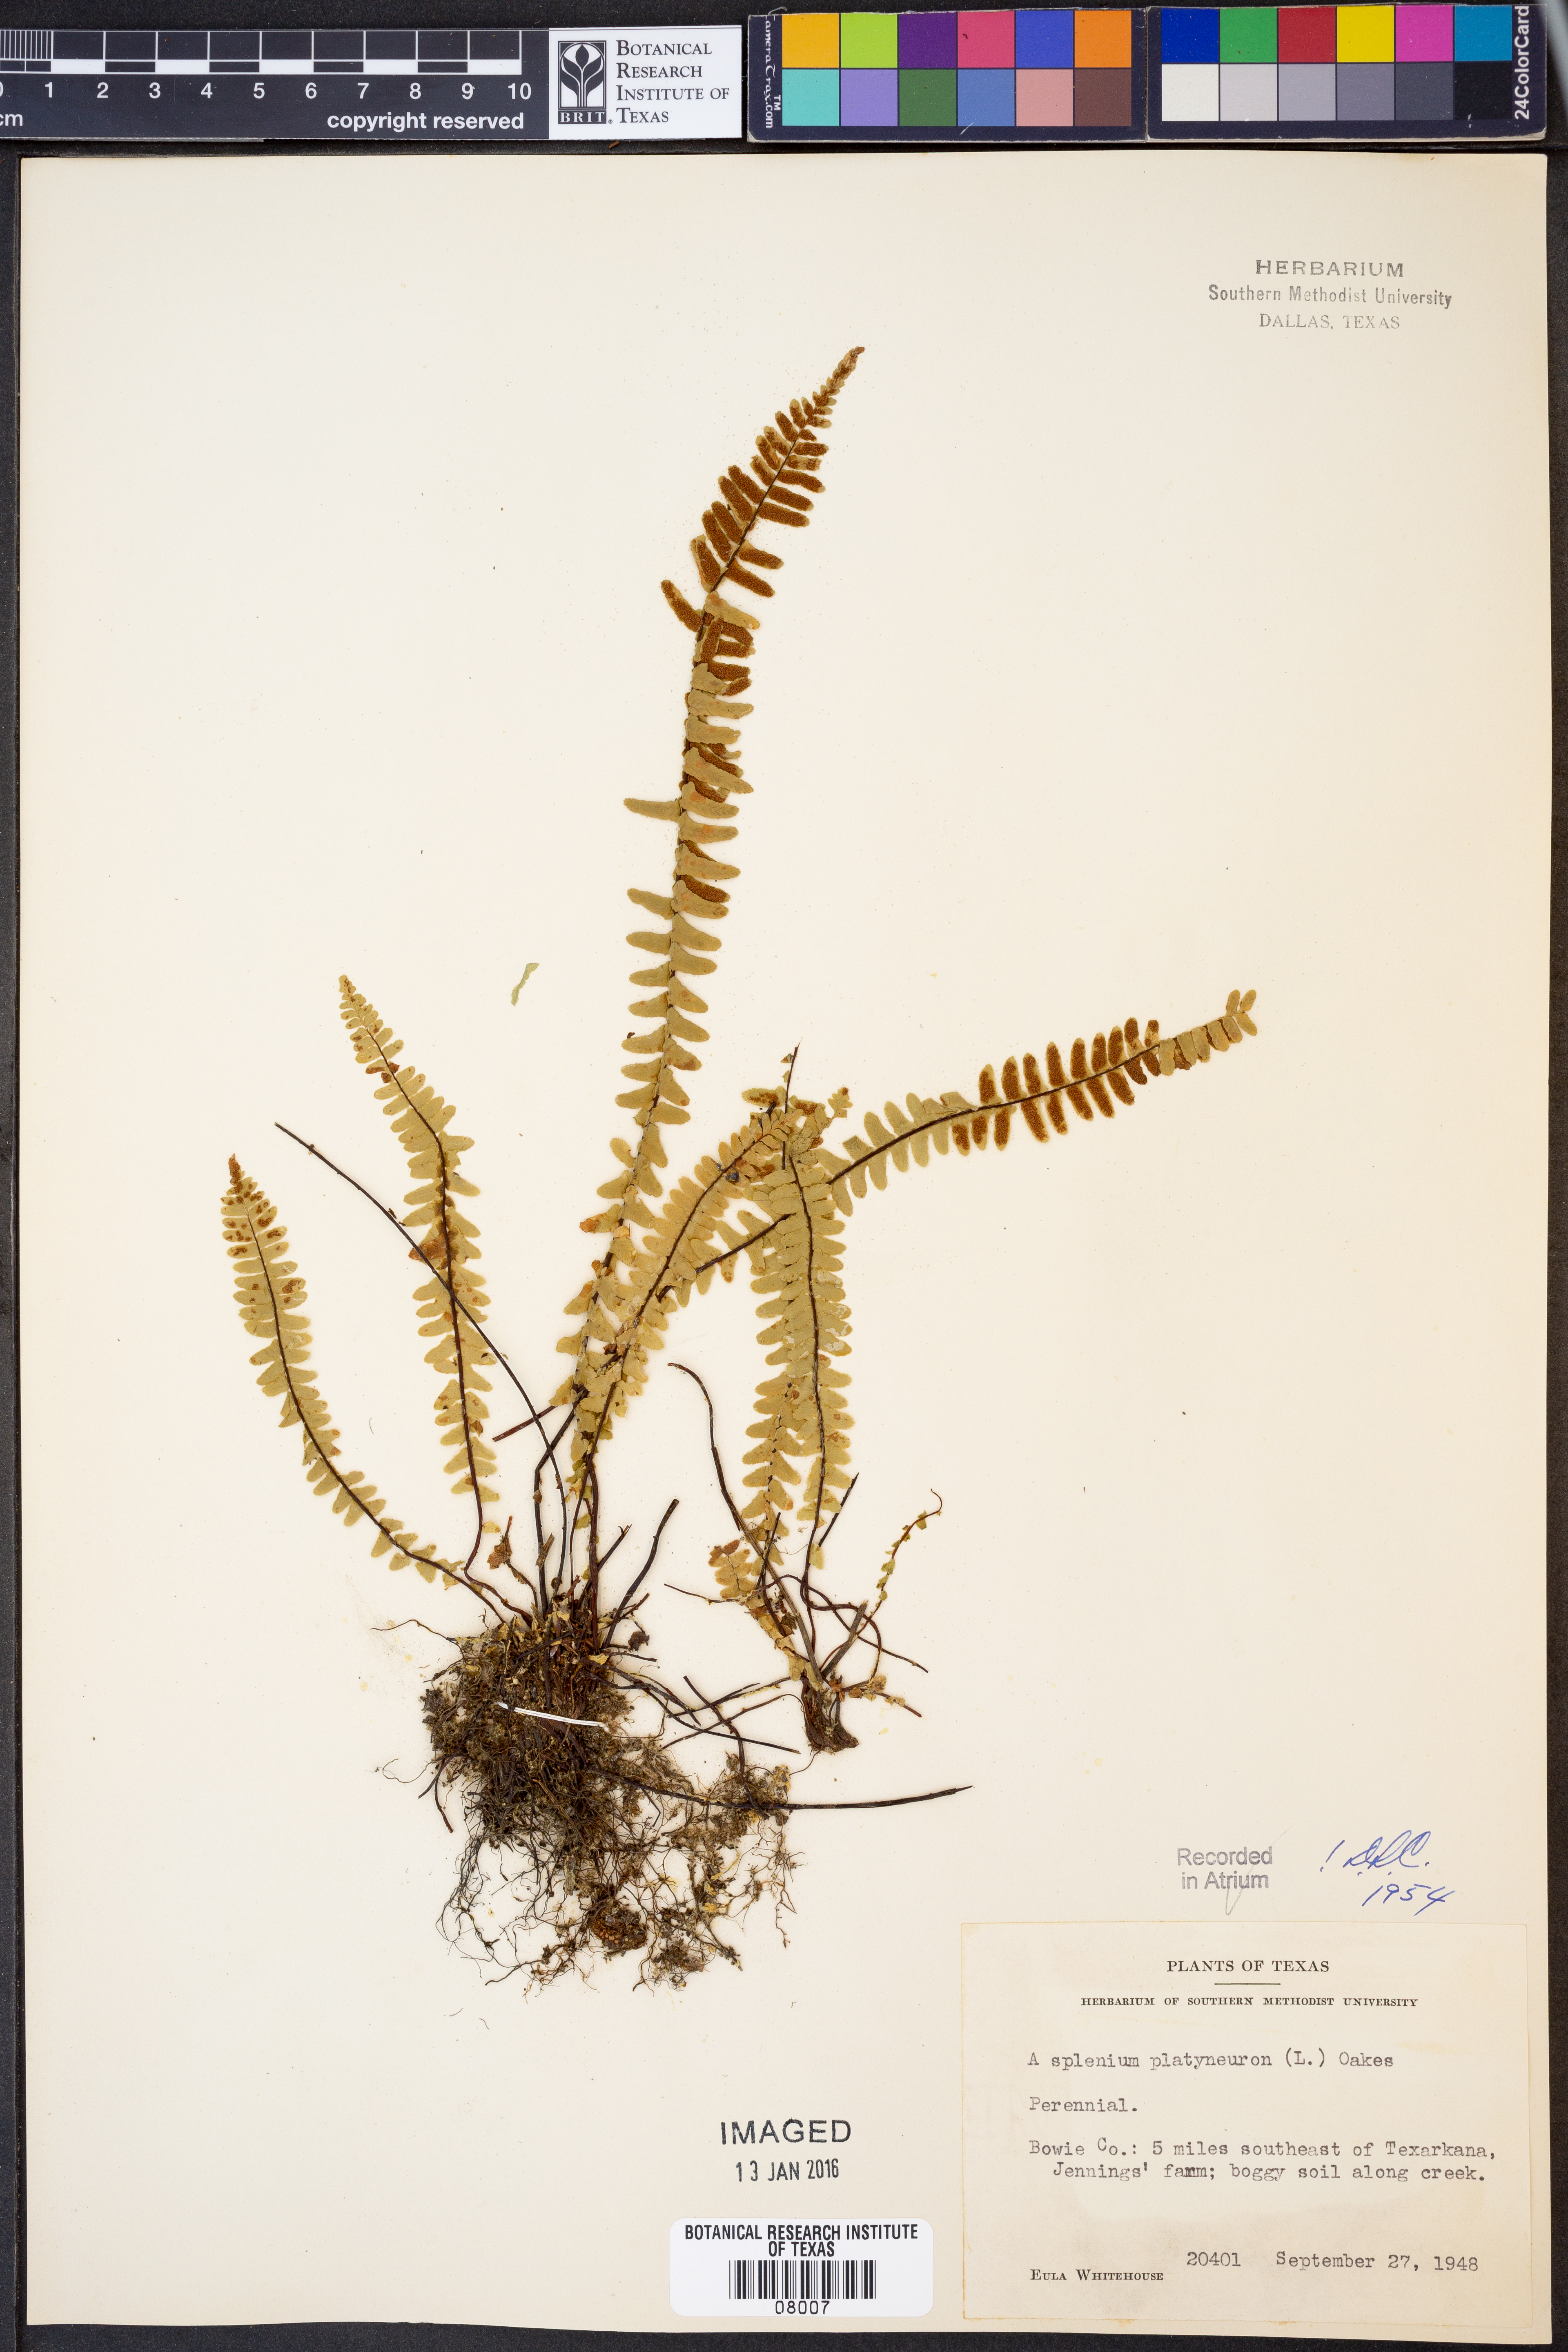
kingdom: Plantae
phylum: Tracheophyta
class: Polypodiopsida
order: Polypodiales
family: Aspleniaceae
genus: Asplenium
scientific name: Asplenium platyneuron
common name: Ebony spleenwort
